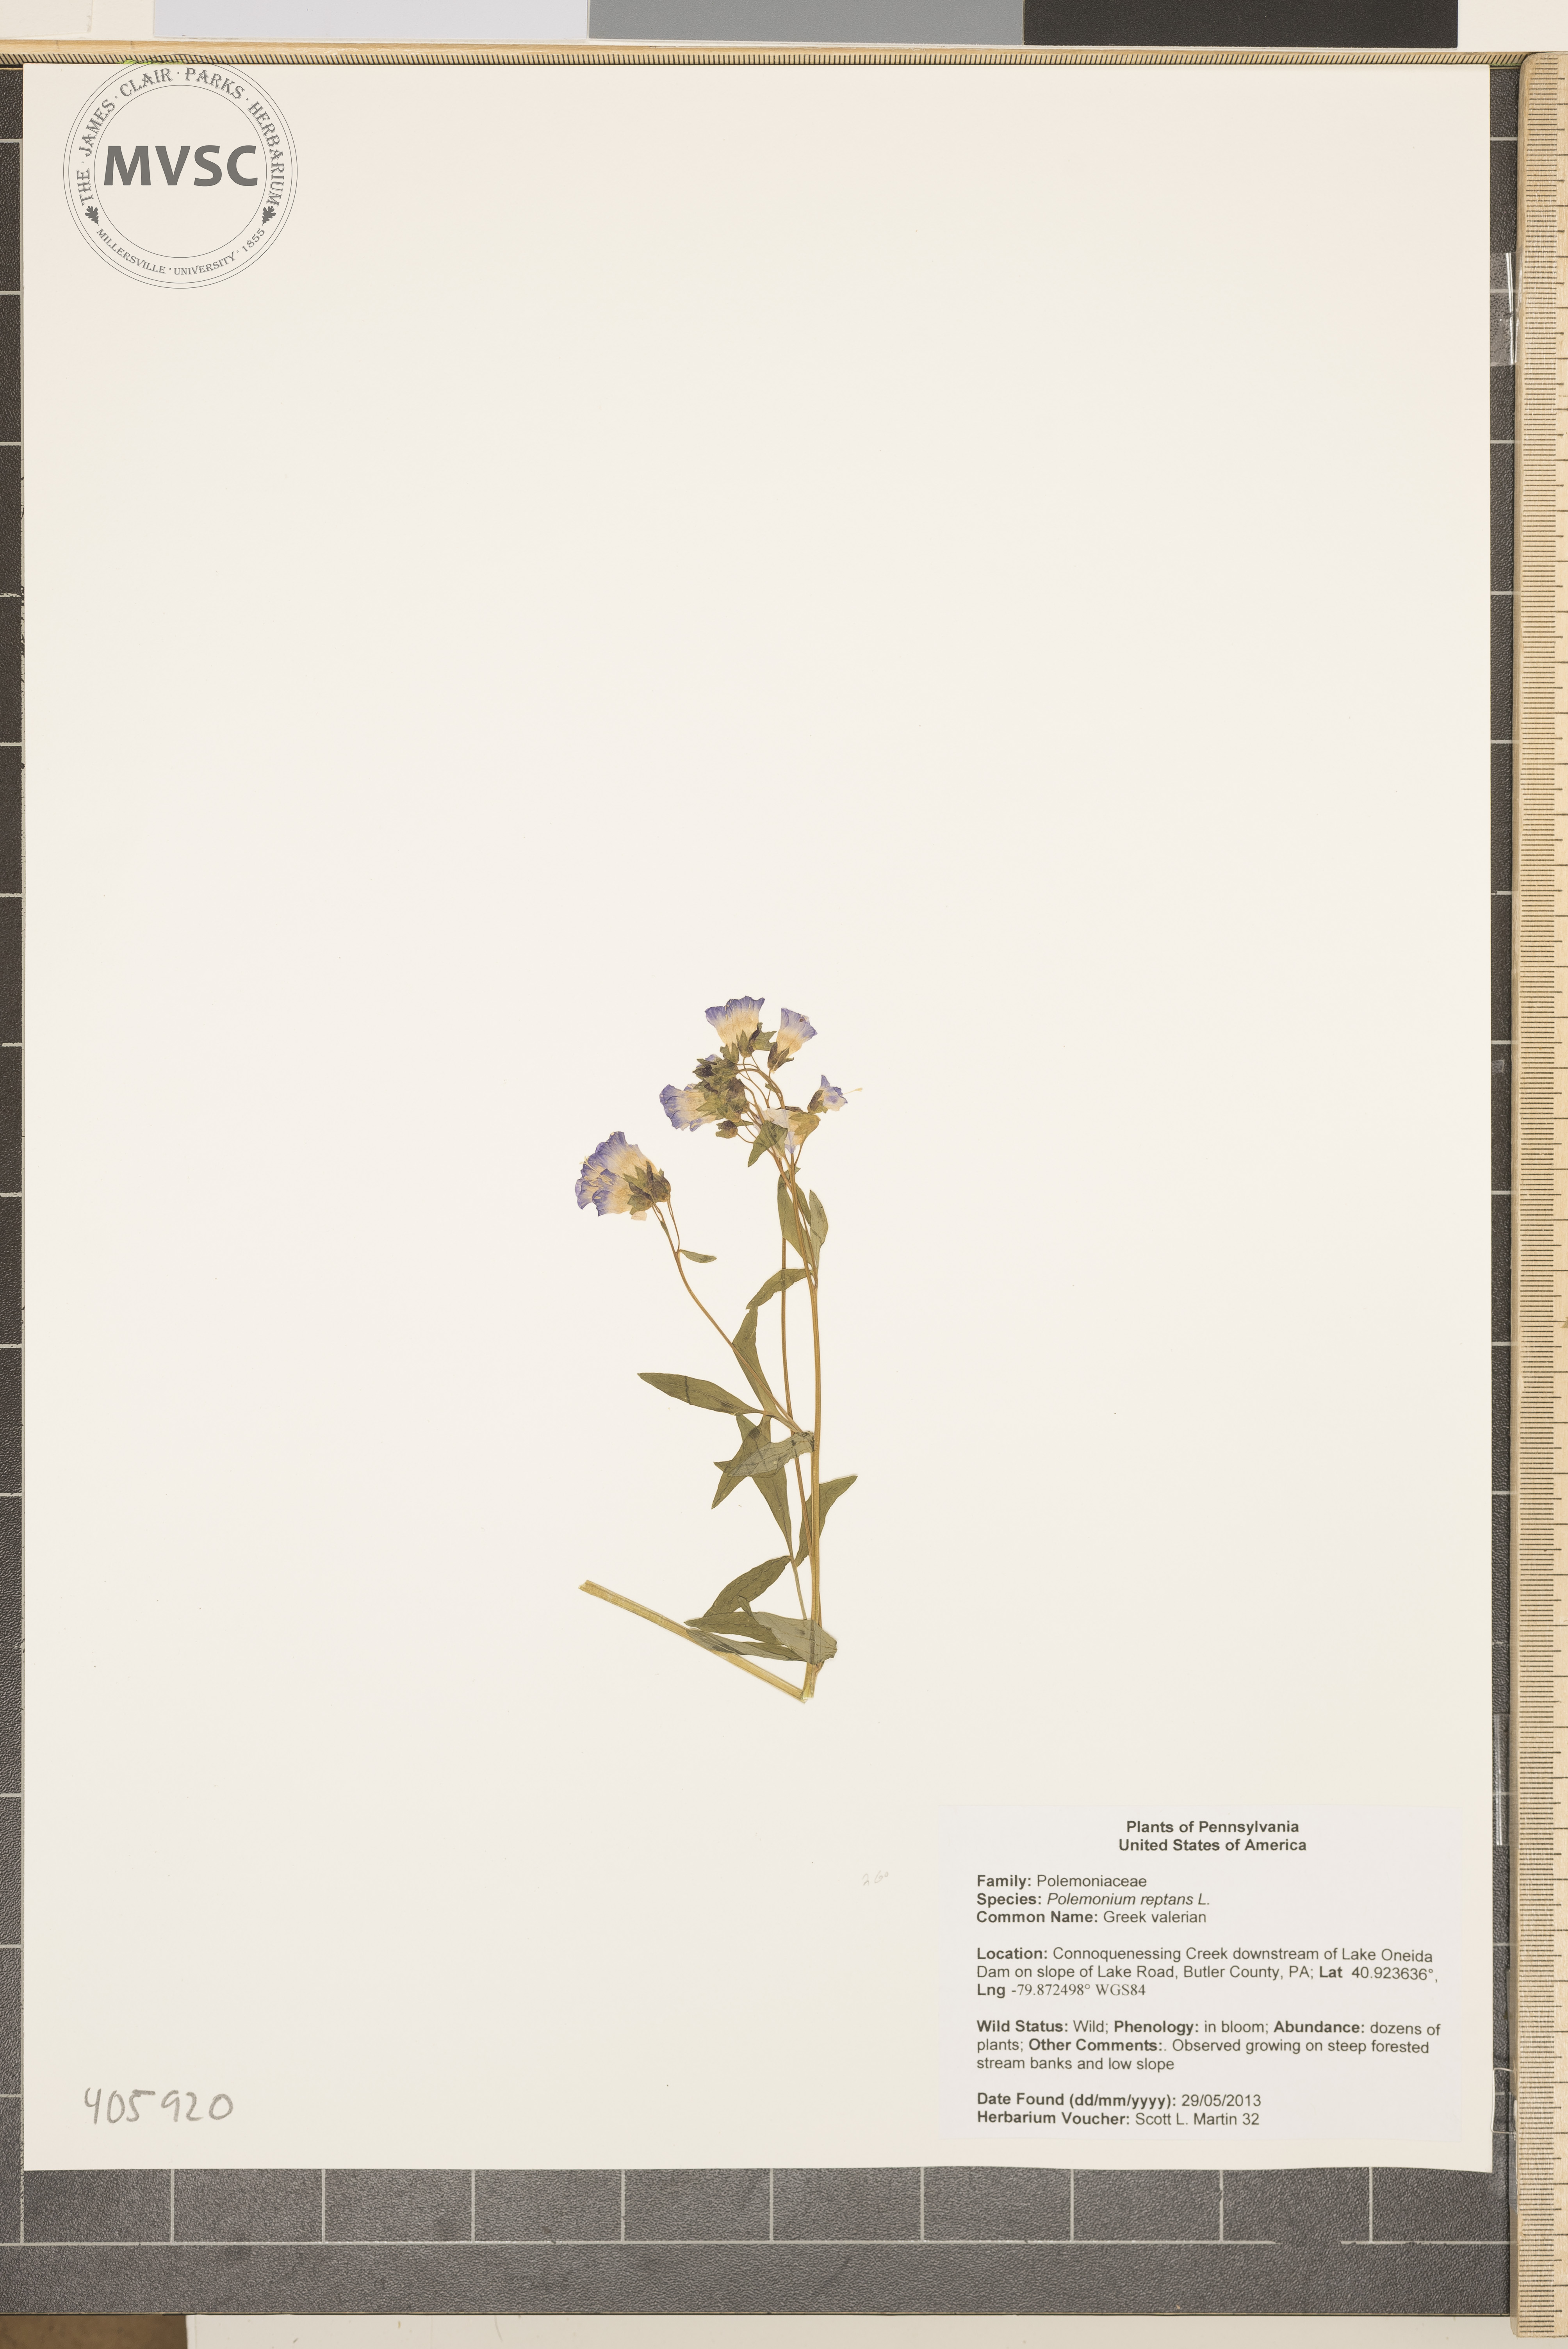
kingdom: Plantae
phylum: Tracheophyta
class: Magnoliopsida
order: Ericales
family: Polemoniaceae
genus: Polemonium
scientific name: Polemonium reptans
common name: Greek valerian
